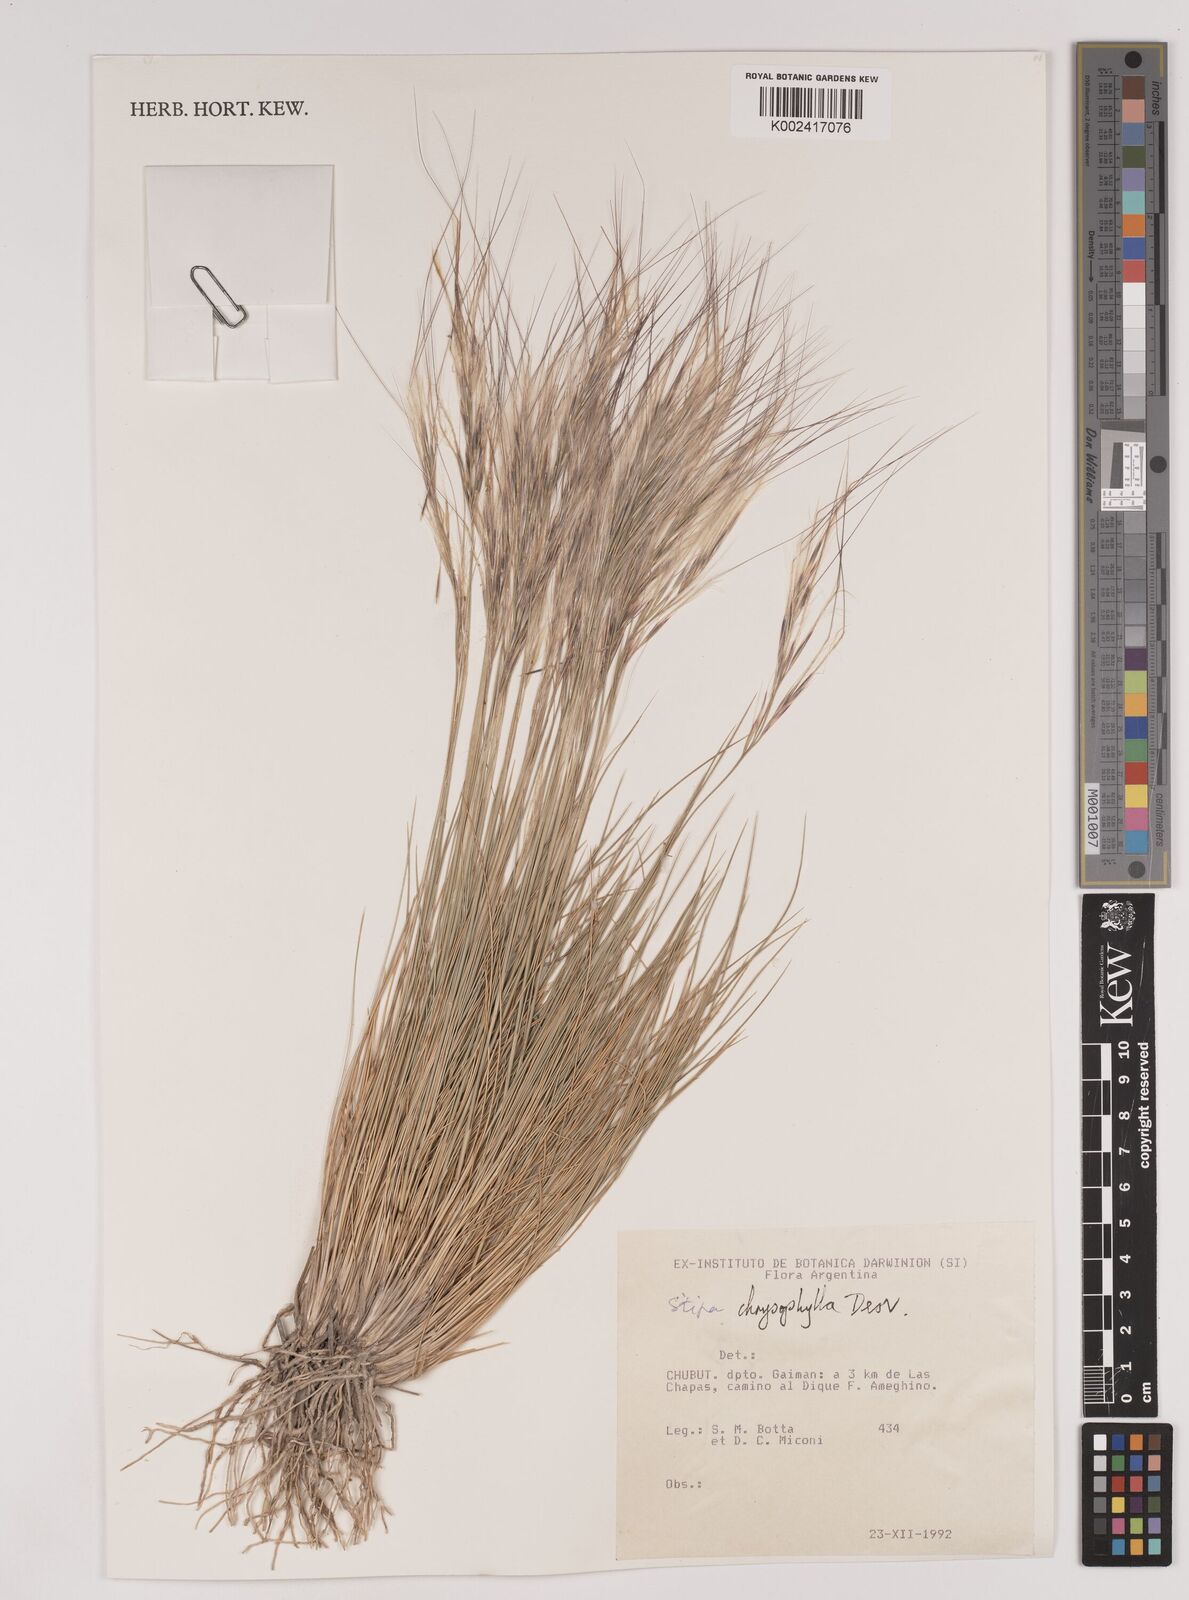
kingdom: Plantae
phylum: Tracheophyta
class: Liliopsida
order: Poales
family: Poaceae
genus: Pappostipa
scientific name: Pappostipa chrysophylla
